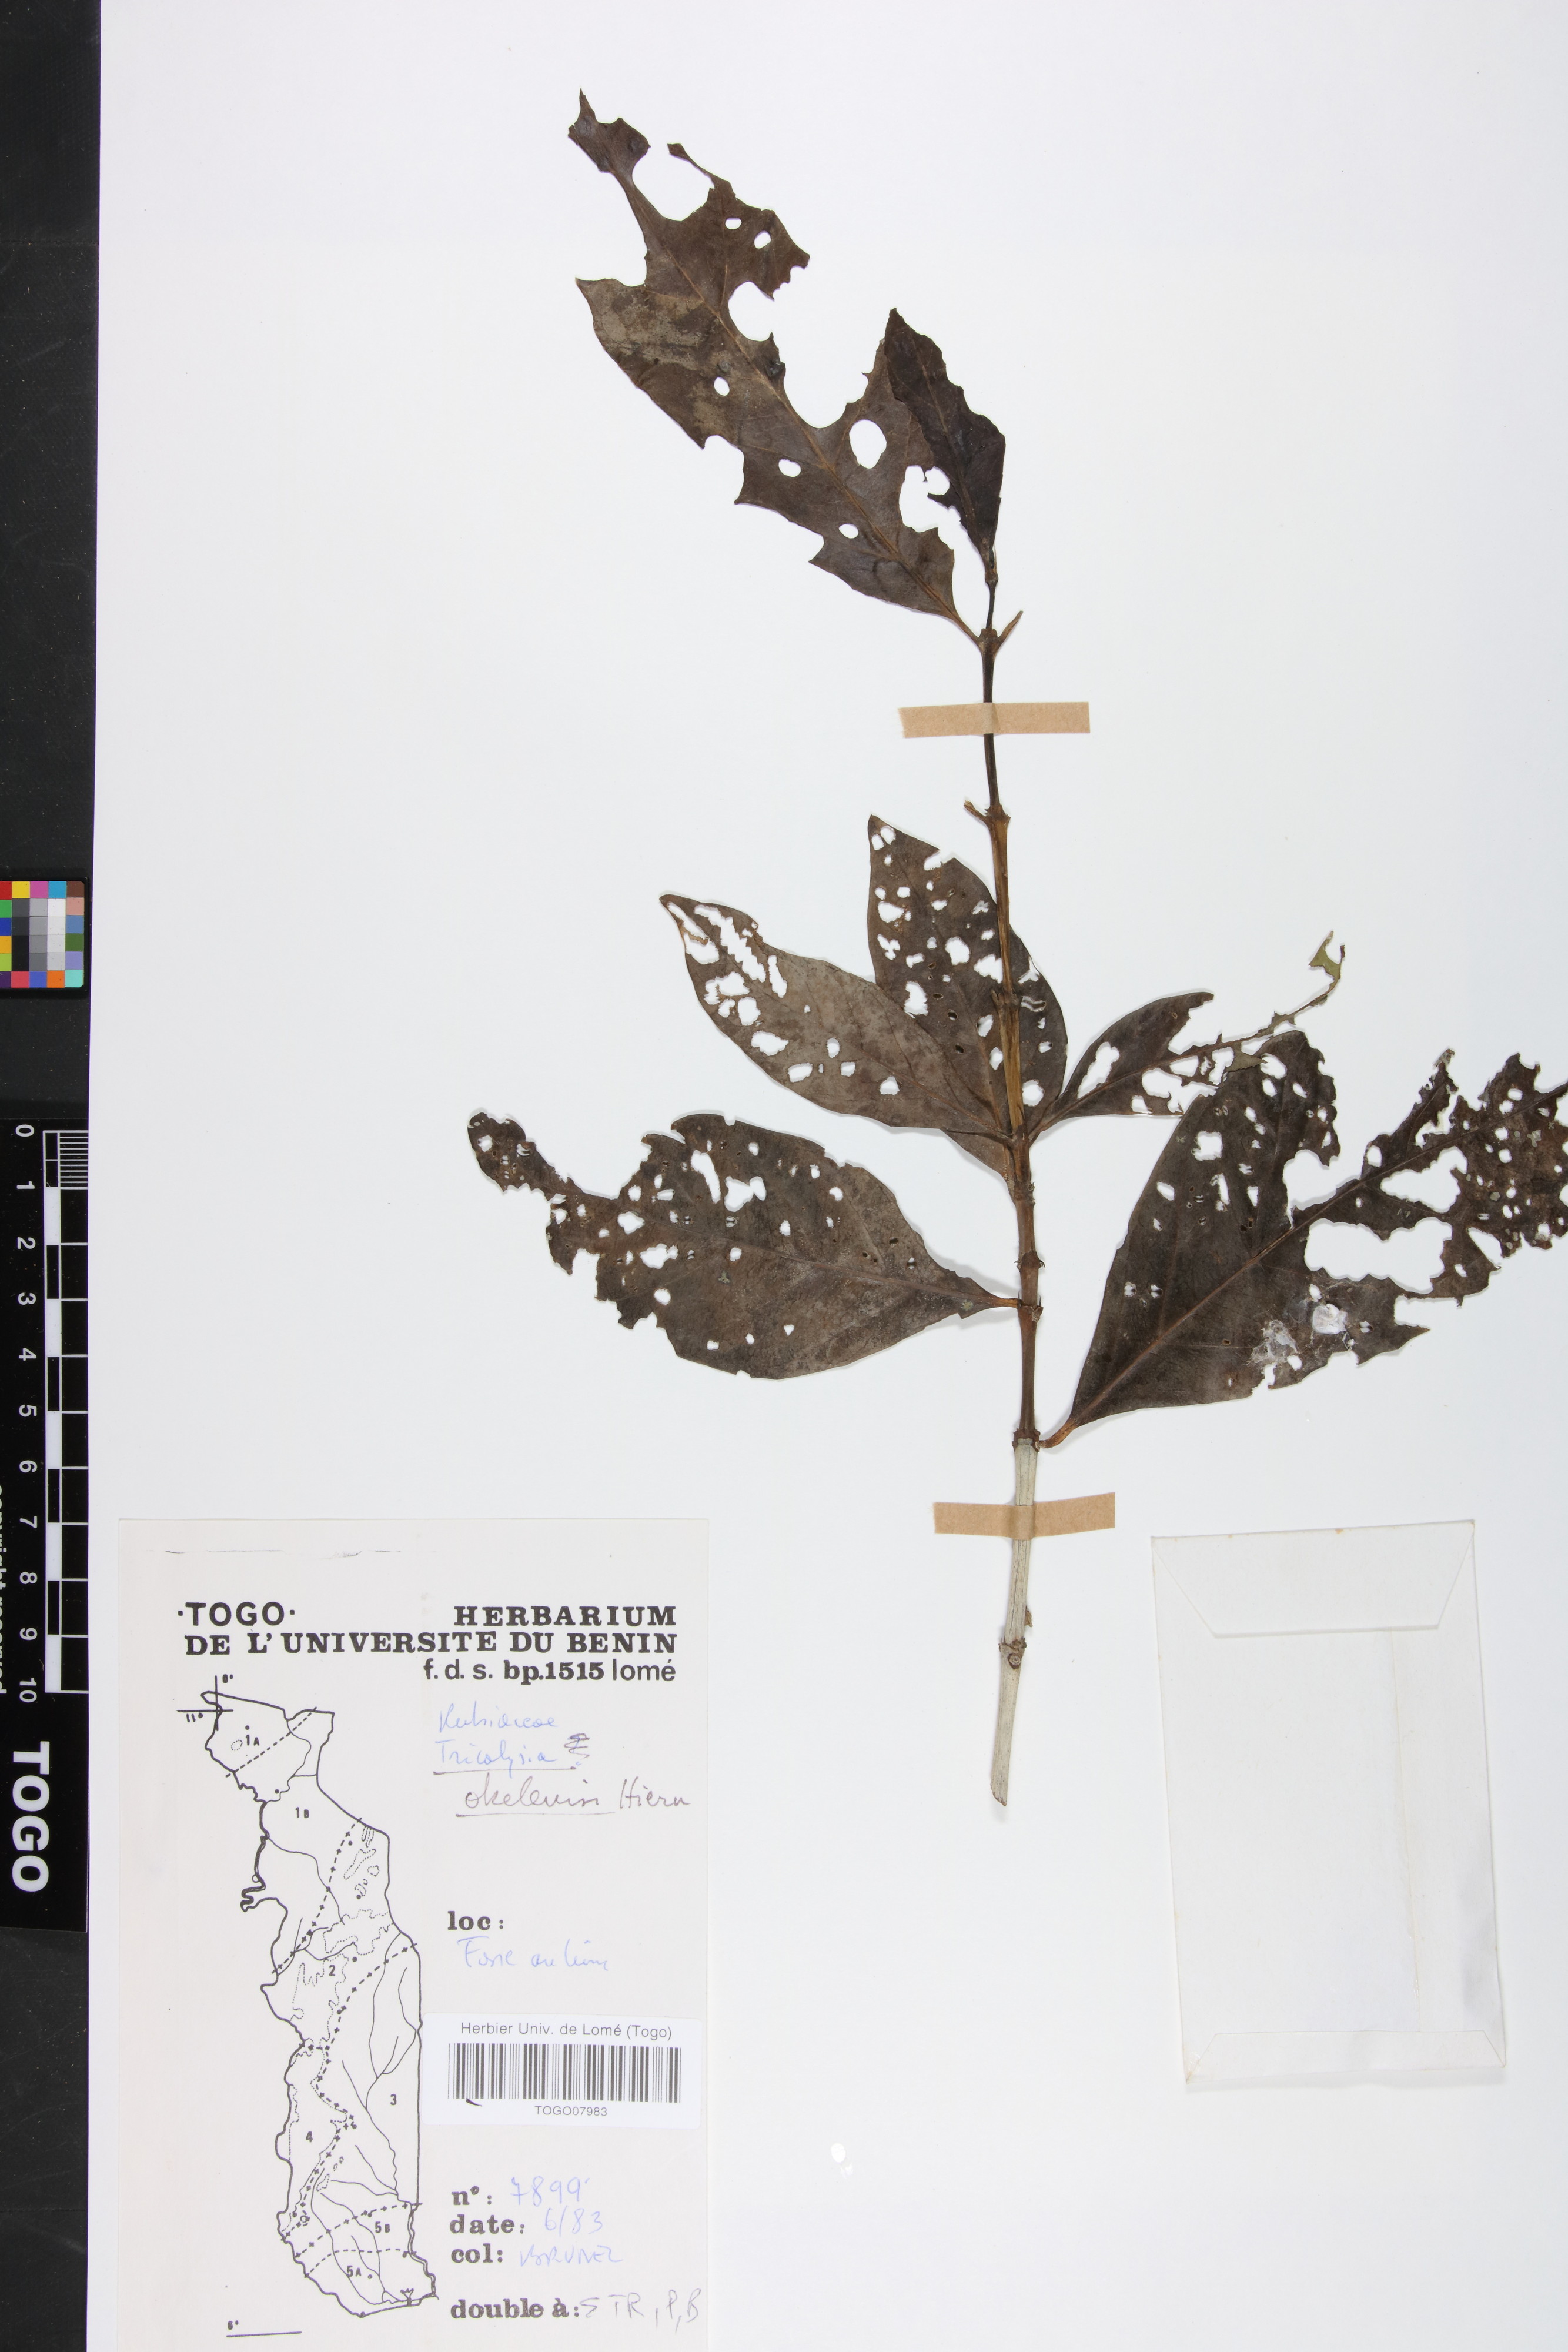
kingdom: Plantae
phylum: Tracheophyta
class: Magnoliopsida
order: Gentianales
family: Rubiaceae
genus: Tricalysia
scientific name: Tricalysia okelensis
